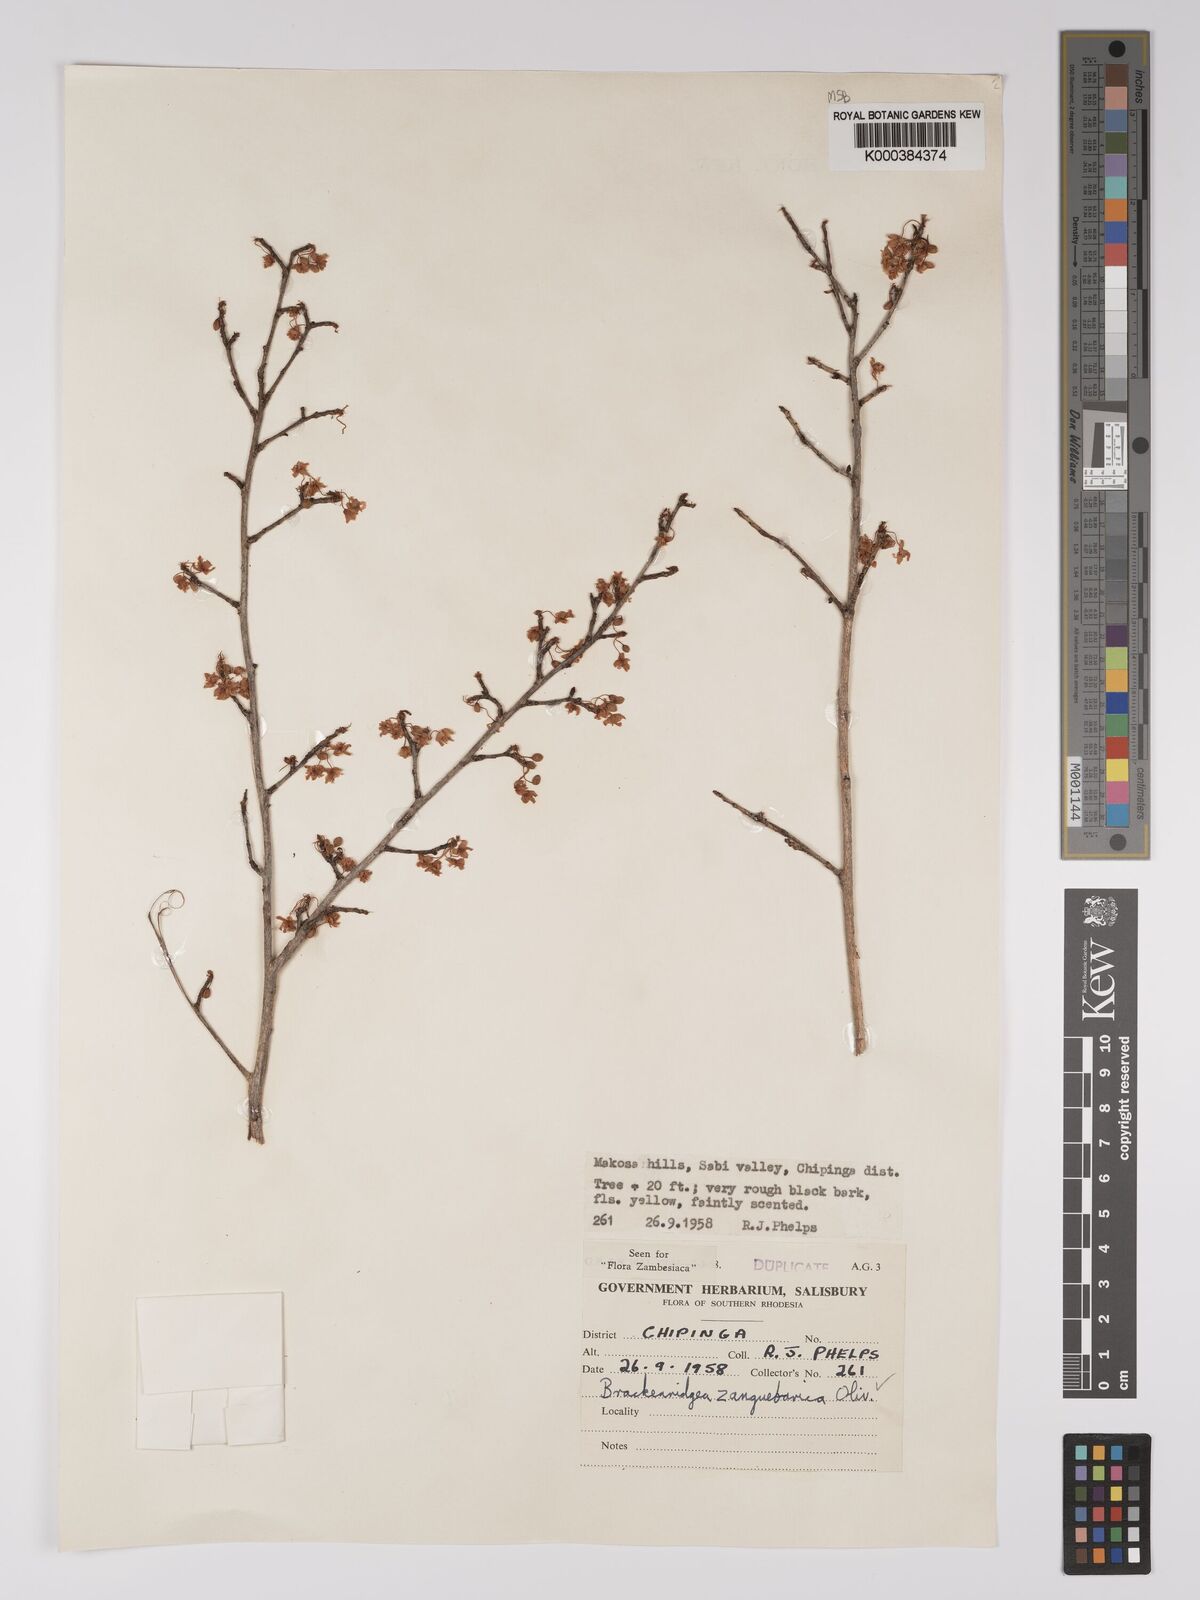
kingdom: Plantae
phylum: Tracheophyta
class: Magnoliopsida
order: Malpighiales
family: Ochnaceae
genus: Brackenridgea
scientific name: Brackenridgea zanguebarica
